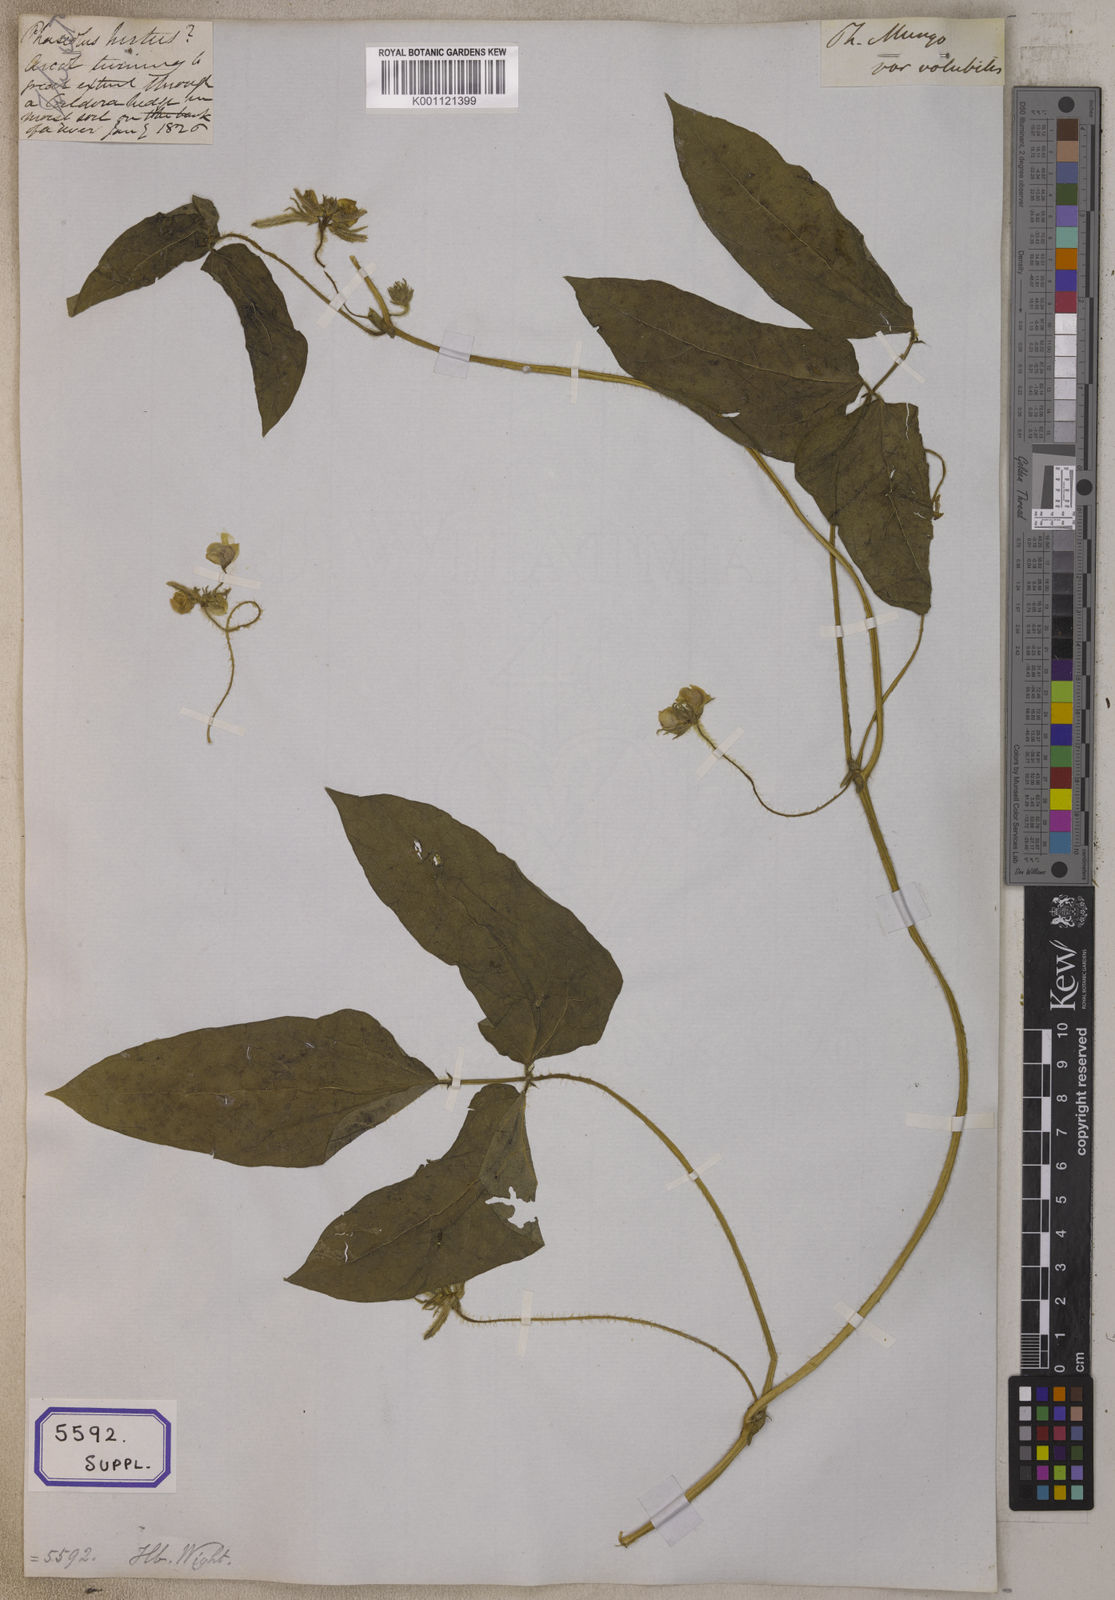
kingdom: Plantae
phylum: Tracheophyta
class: Magnoliopsida
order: Fabales
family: Fabaceae
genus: Vigna
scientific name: Vigna radiata
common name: Mung-bean
